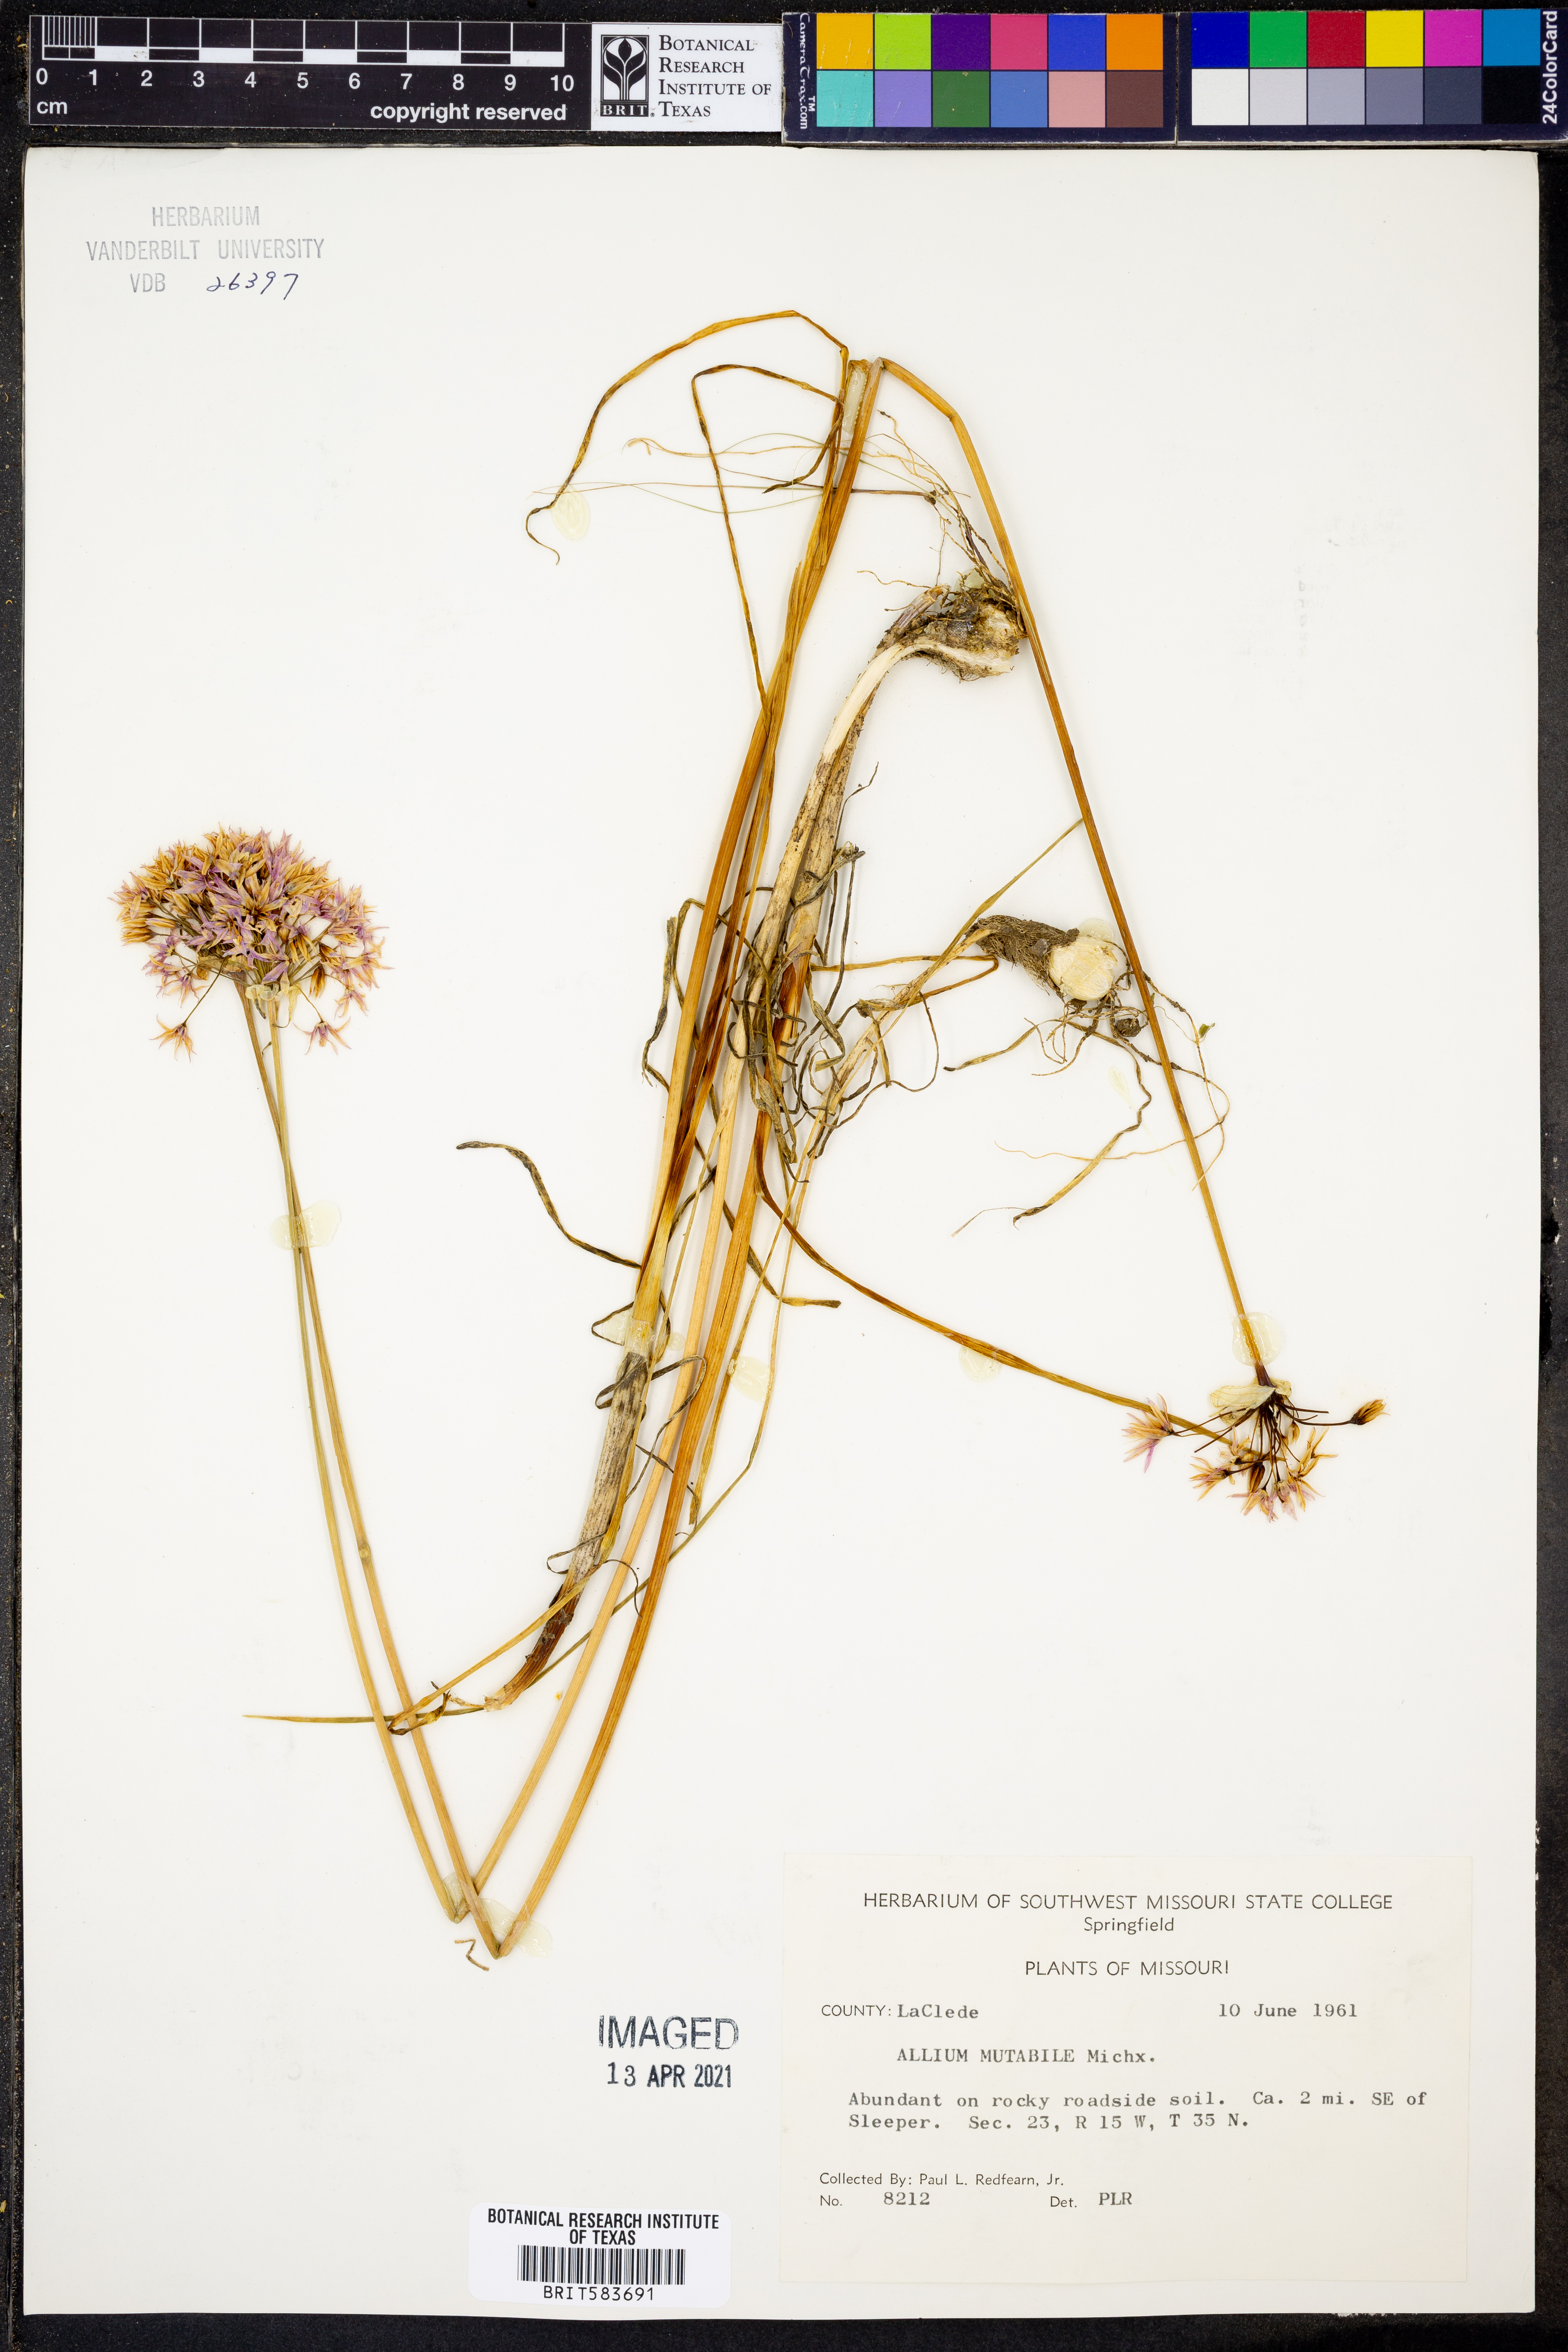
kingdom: Plantae
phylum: Tracheophyta
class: Liliopsida
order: Asparagales
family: Amaryllidaceae
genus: Allium
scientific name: Allium canadense
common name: Meadow garlic
